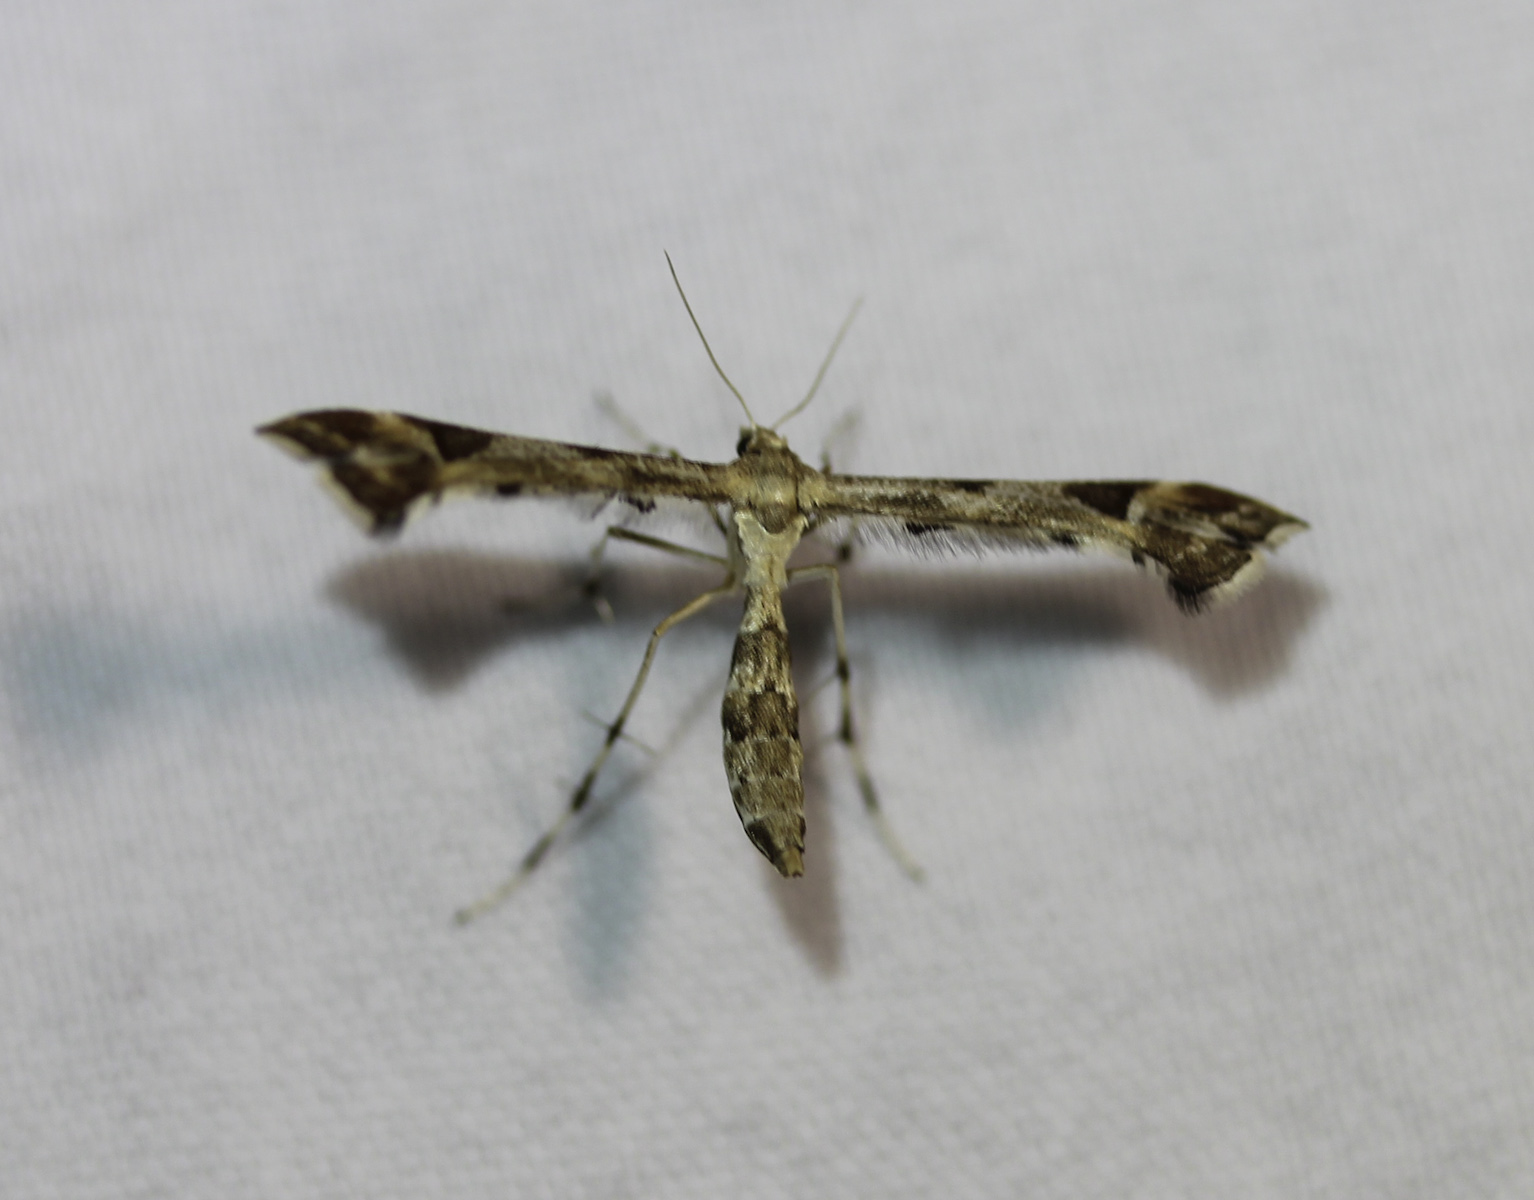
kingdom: Animalia
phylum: Arthropoda
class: Insecta
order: Lepidoptera
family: Pterophoridae
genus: Gillmeria
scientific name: Gillmeria pallidactyla
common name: Yarrow plume
